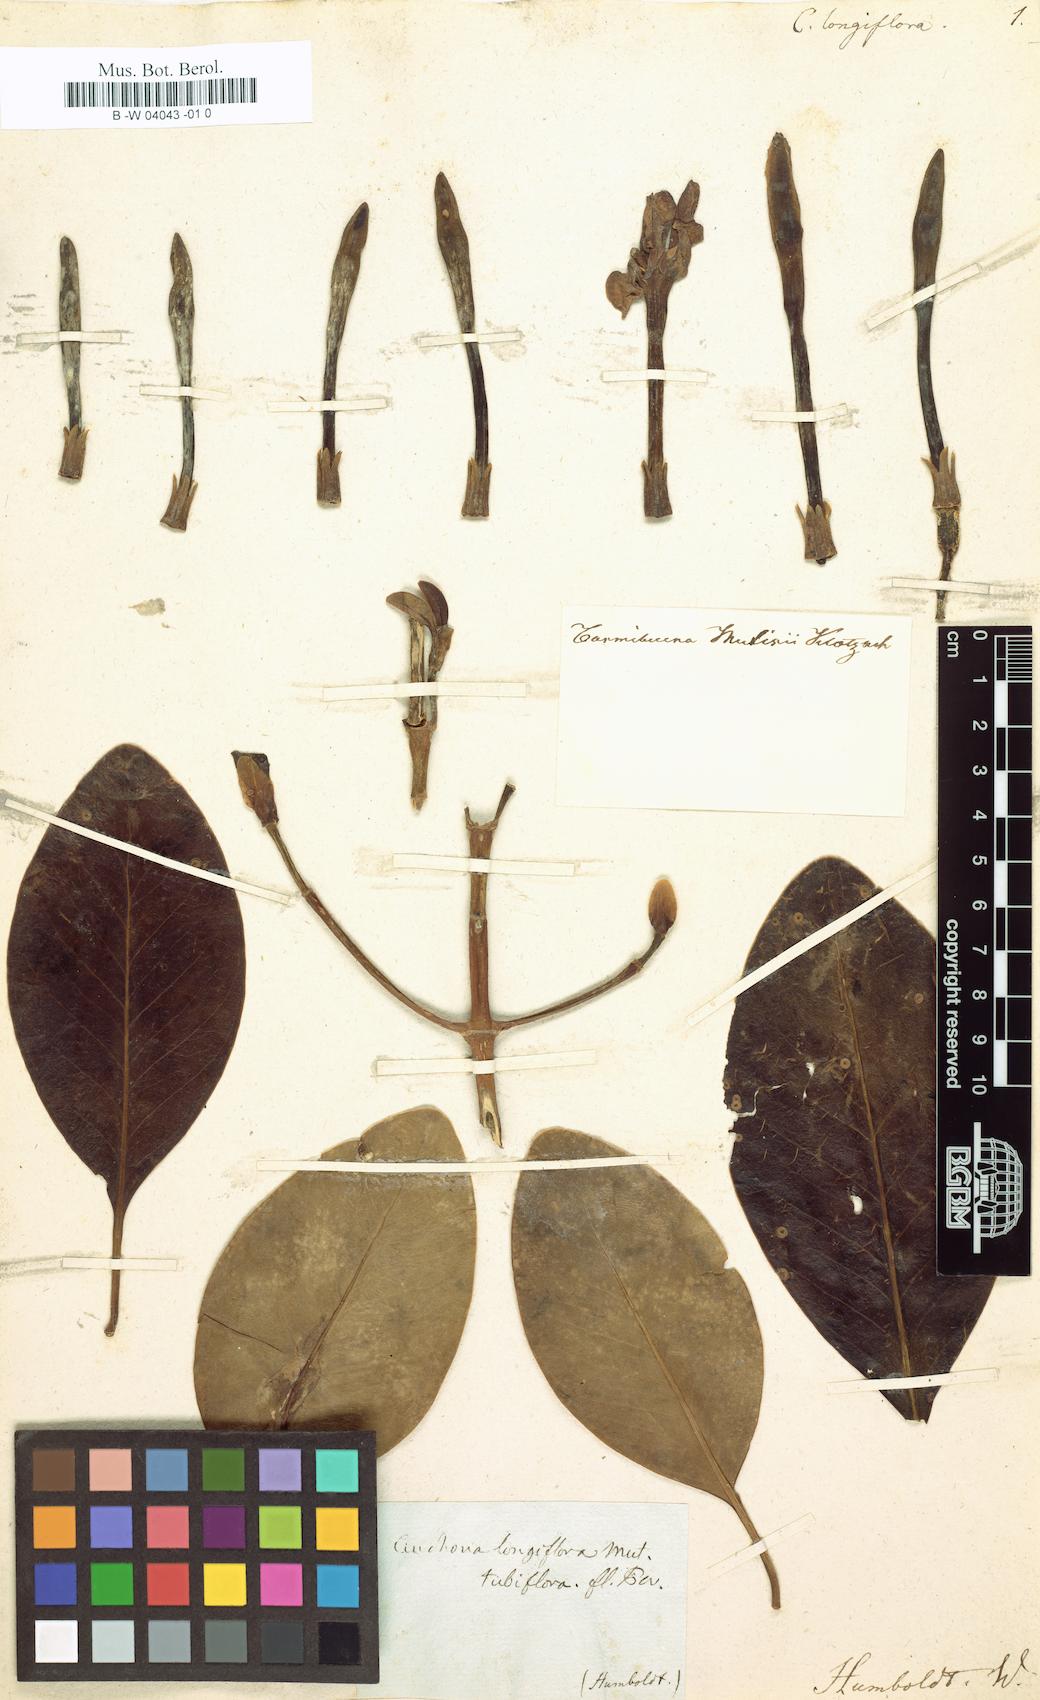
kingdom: Plantae
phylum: Tracheophyta
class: Magnoliopsida
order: Gentianales
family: Rubiaceae
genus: Cosmibuena
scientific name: Cosmibuena grandiflora
